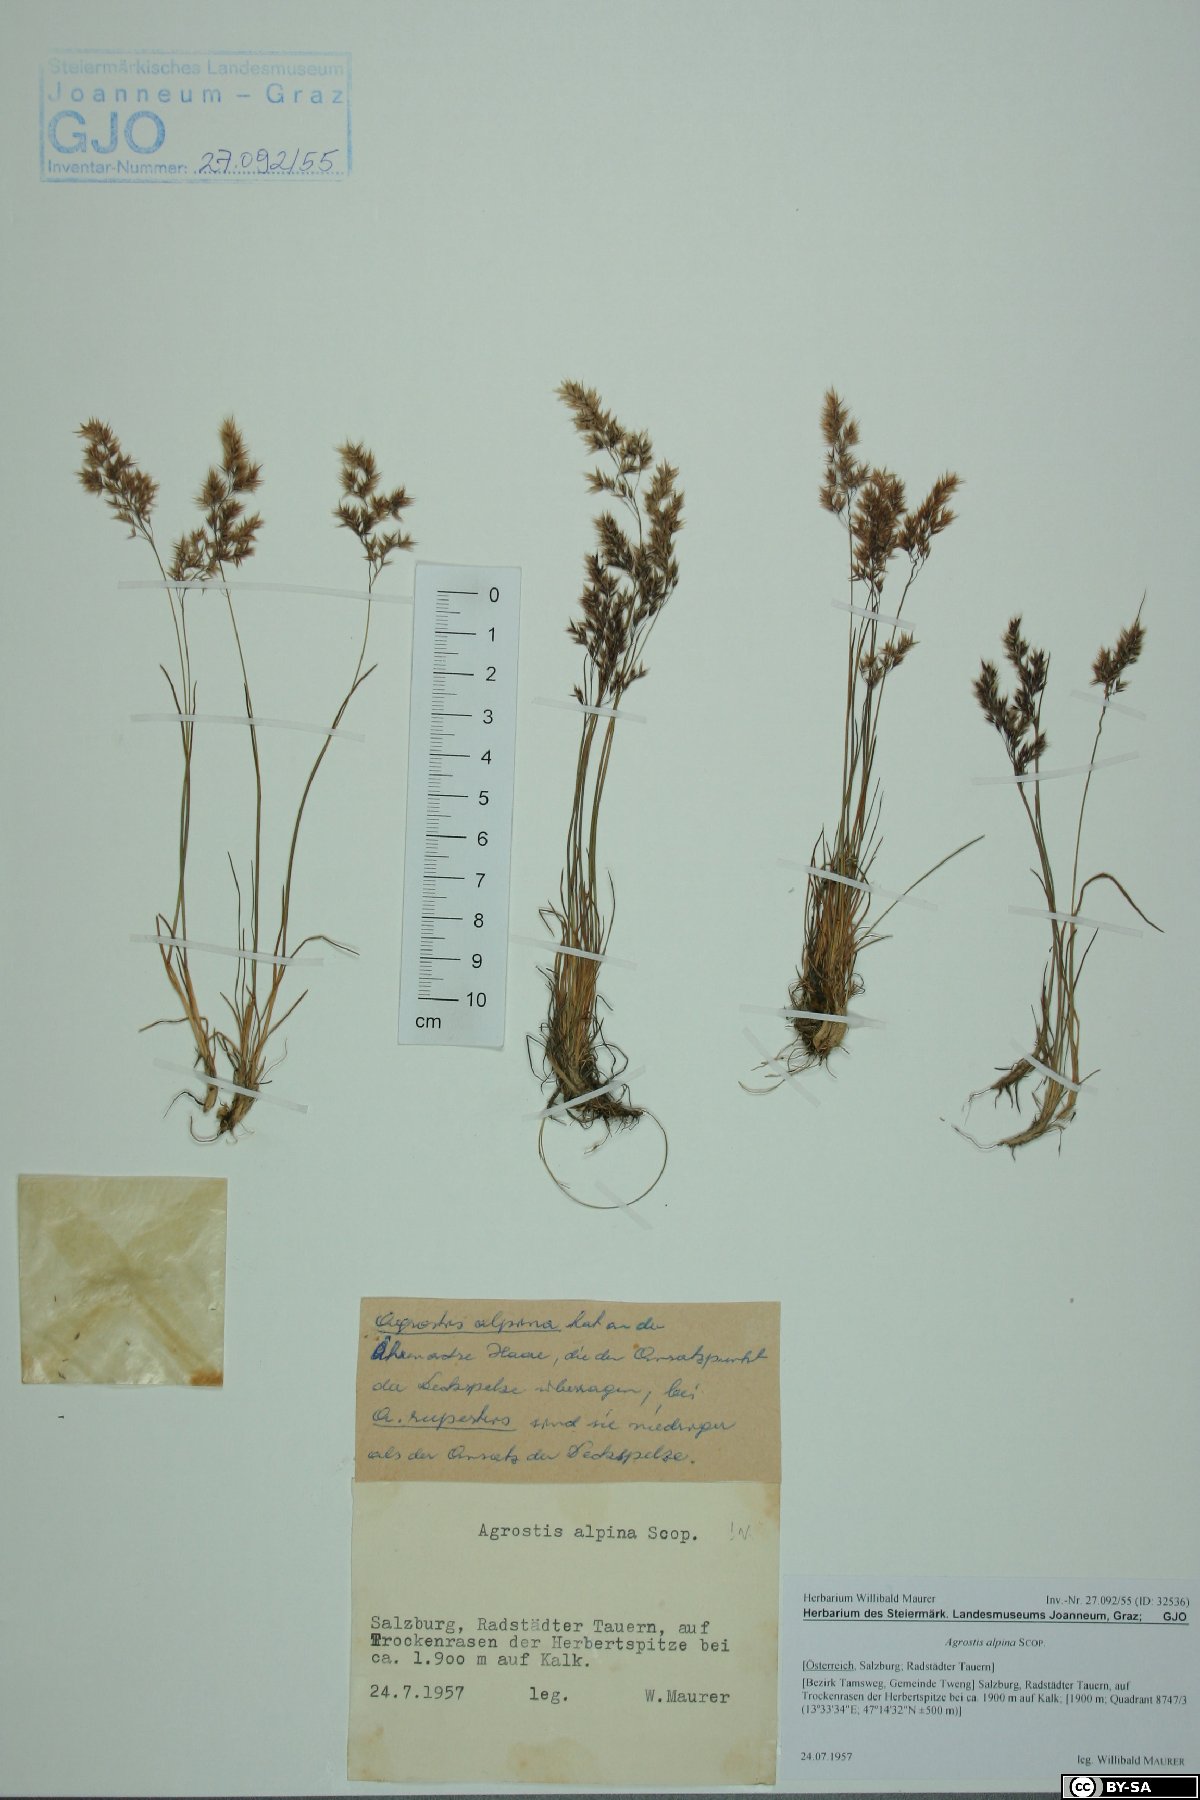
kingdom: Plantae
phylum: Tracheophyta
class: Liliopsida
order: Poales
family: Poaceae
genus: Alpagrostis
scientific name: Alpagrostis alpina
